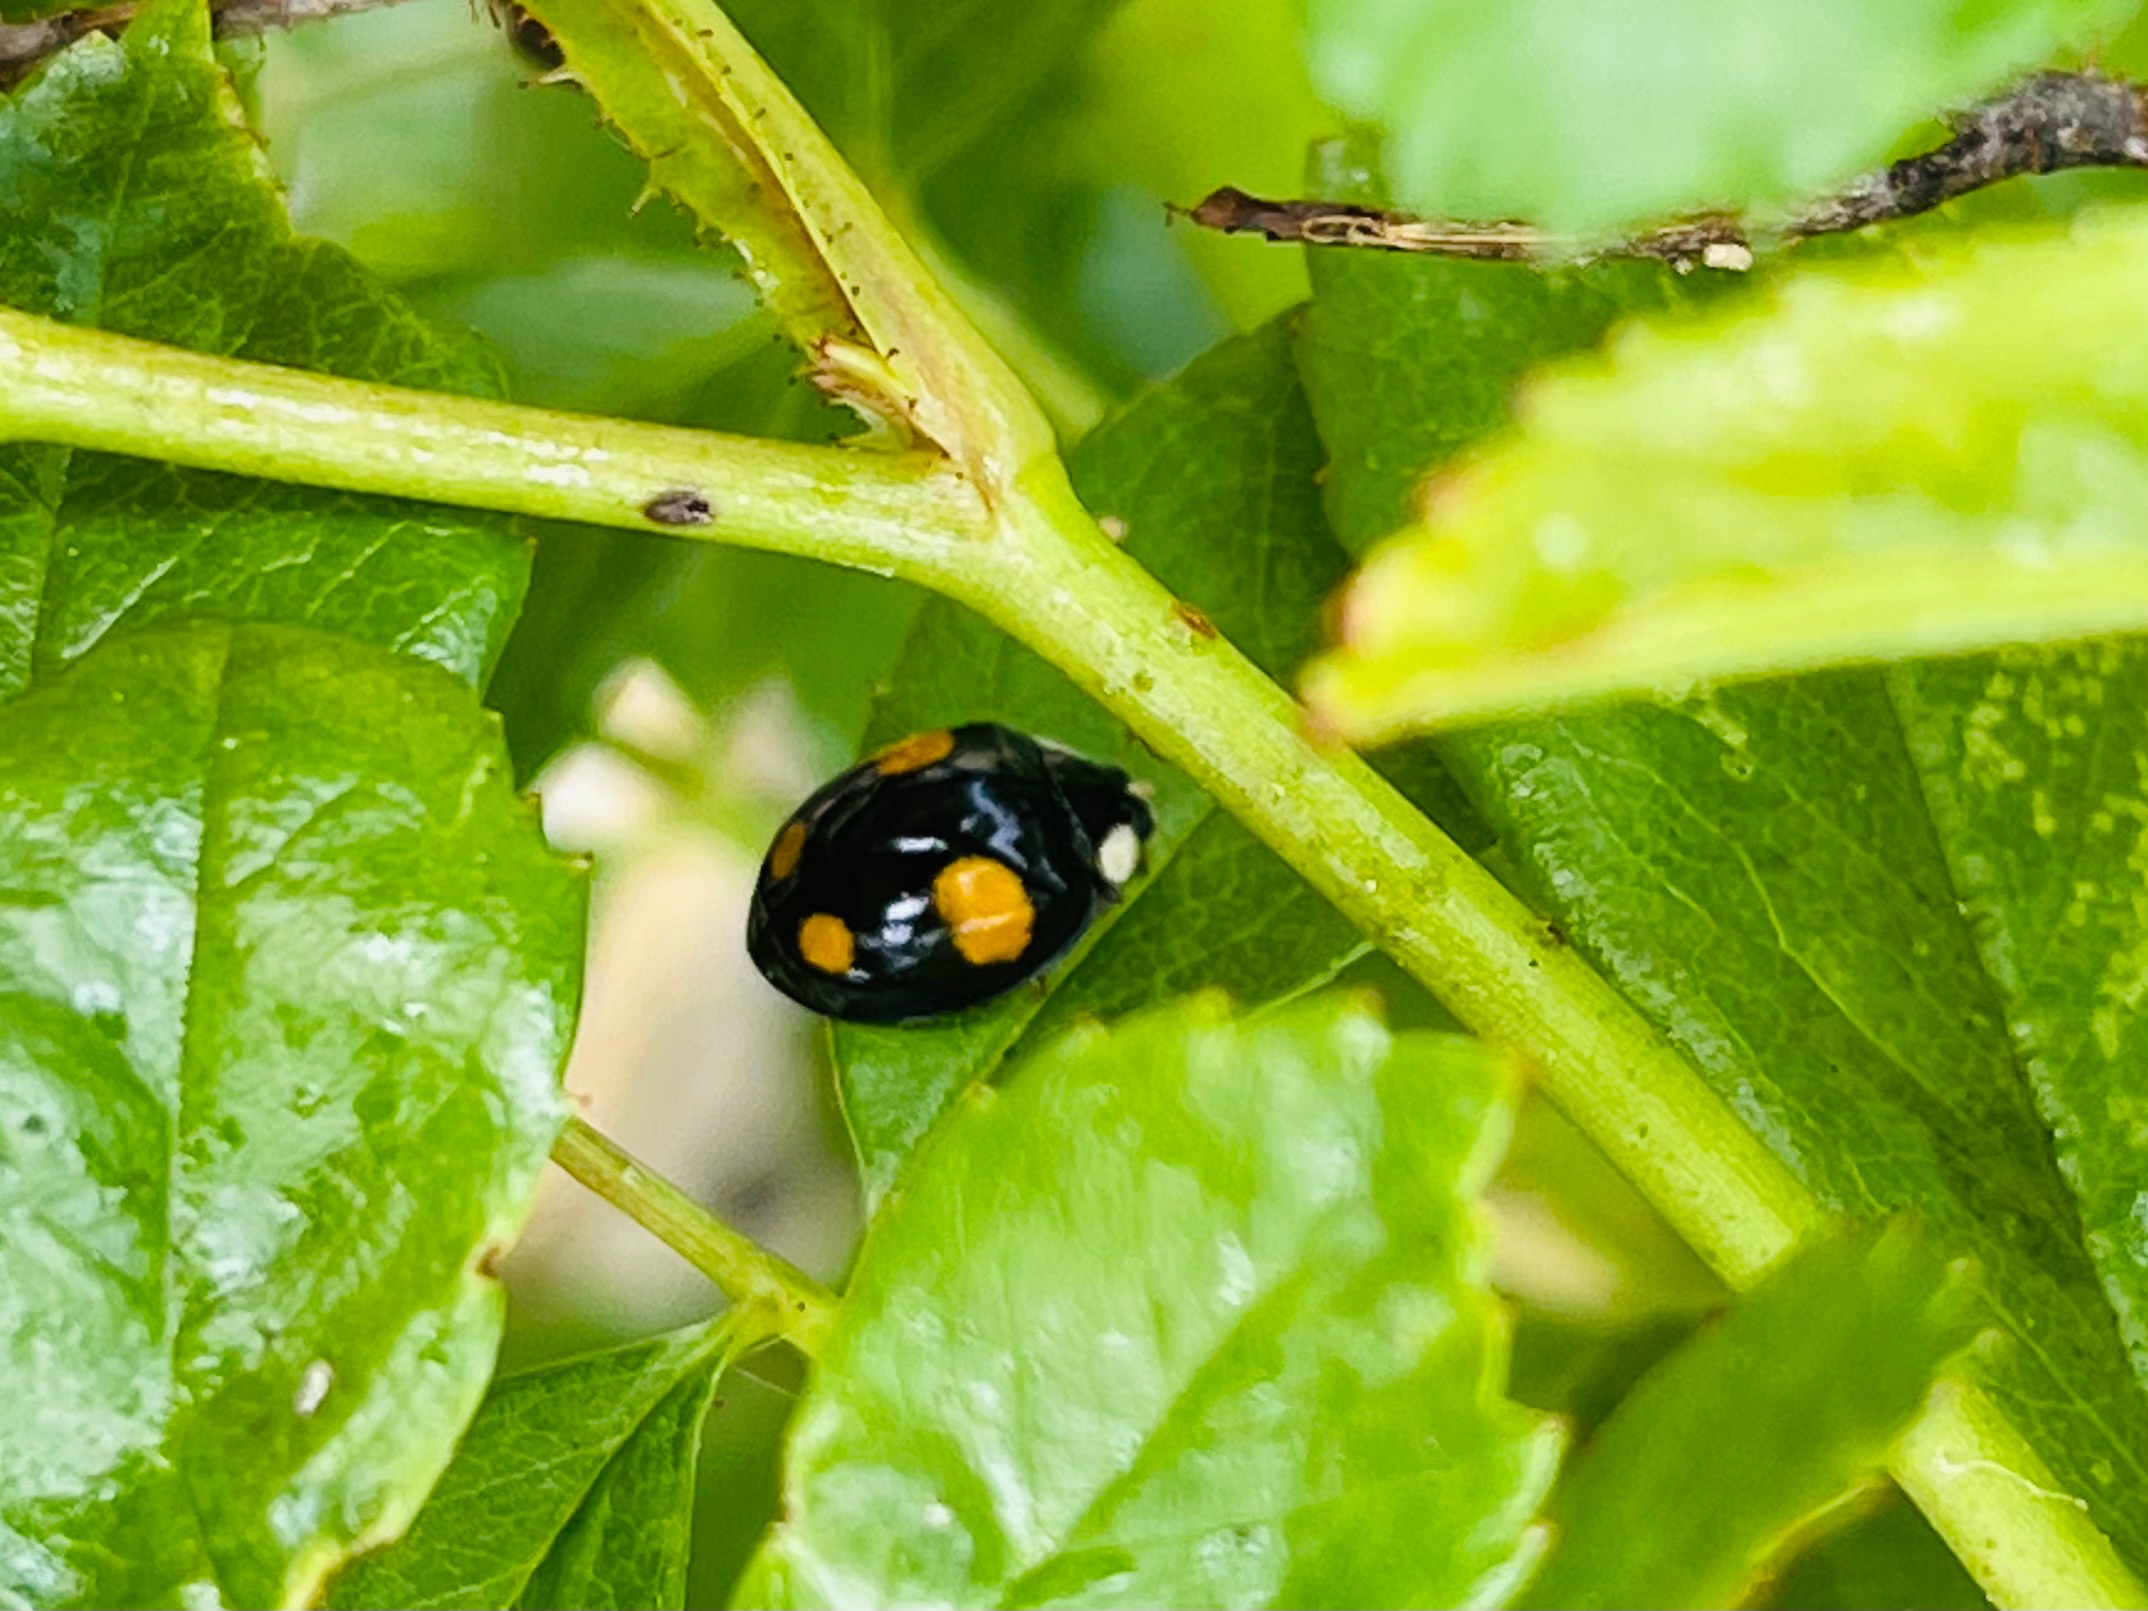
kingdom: Animalia
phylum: Arthropoda
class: Insecta
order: Coleoptera
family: Coccinellidae
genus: Harmonia
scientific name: Harmonia axyridis
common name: Harlekinmariehøne
